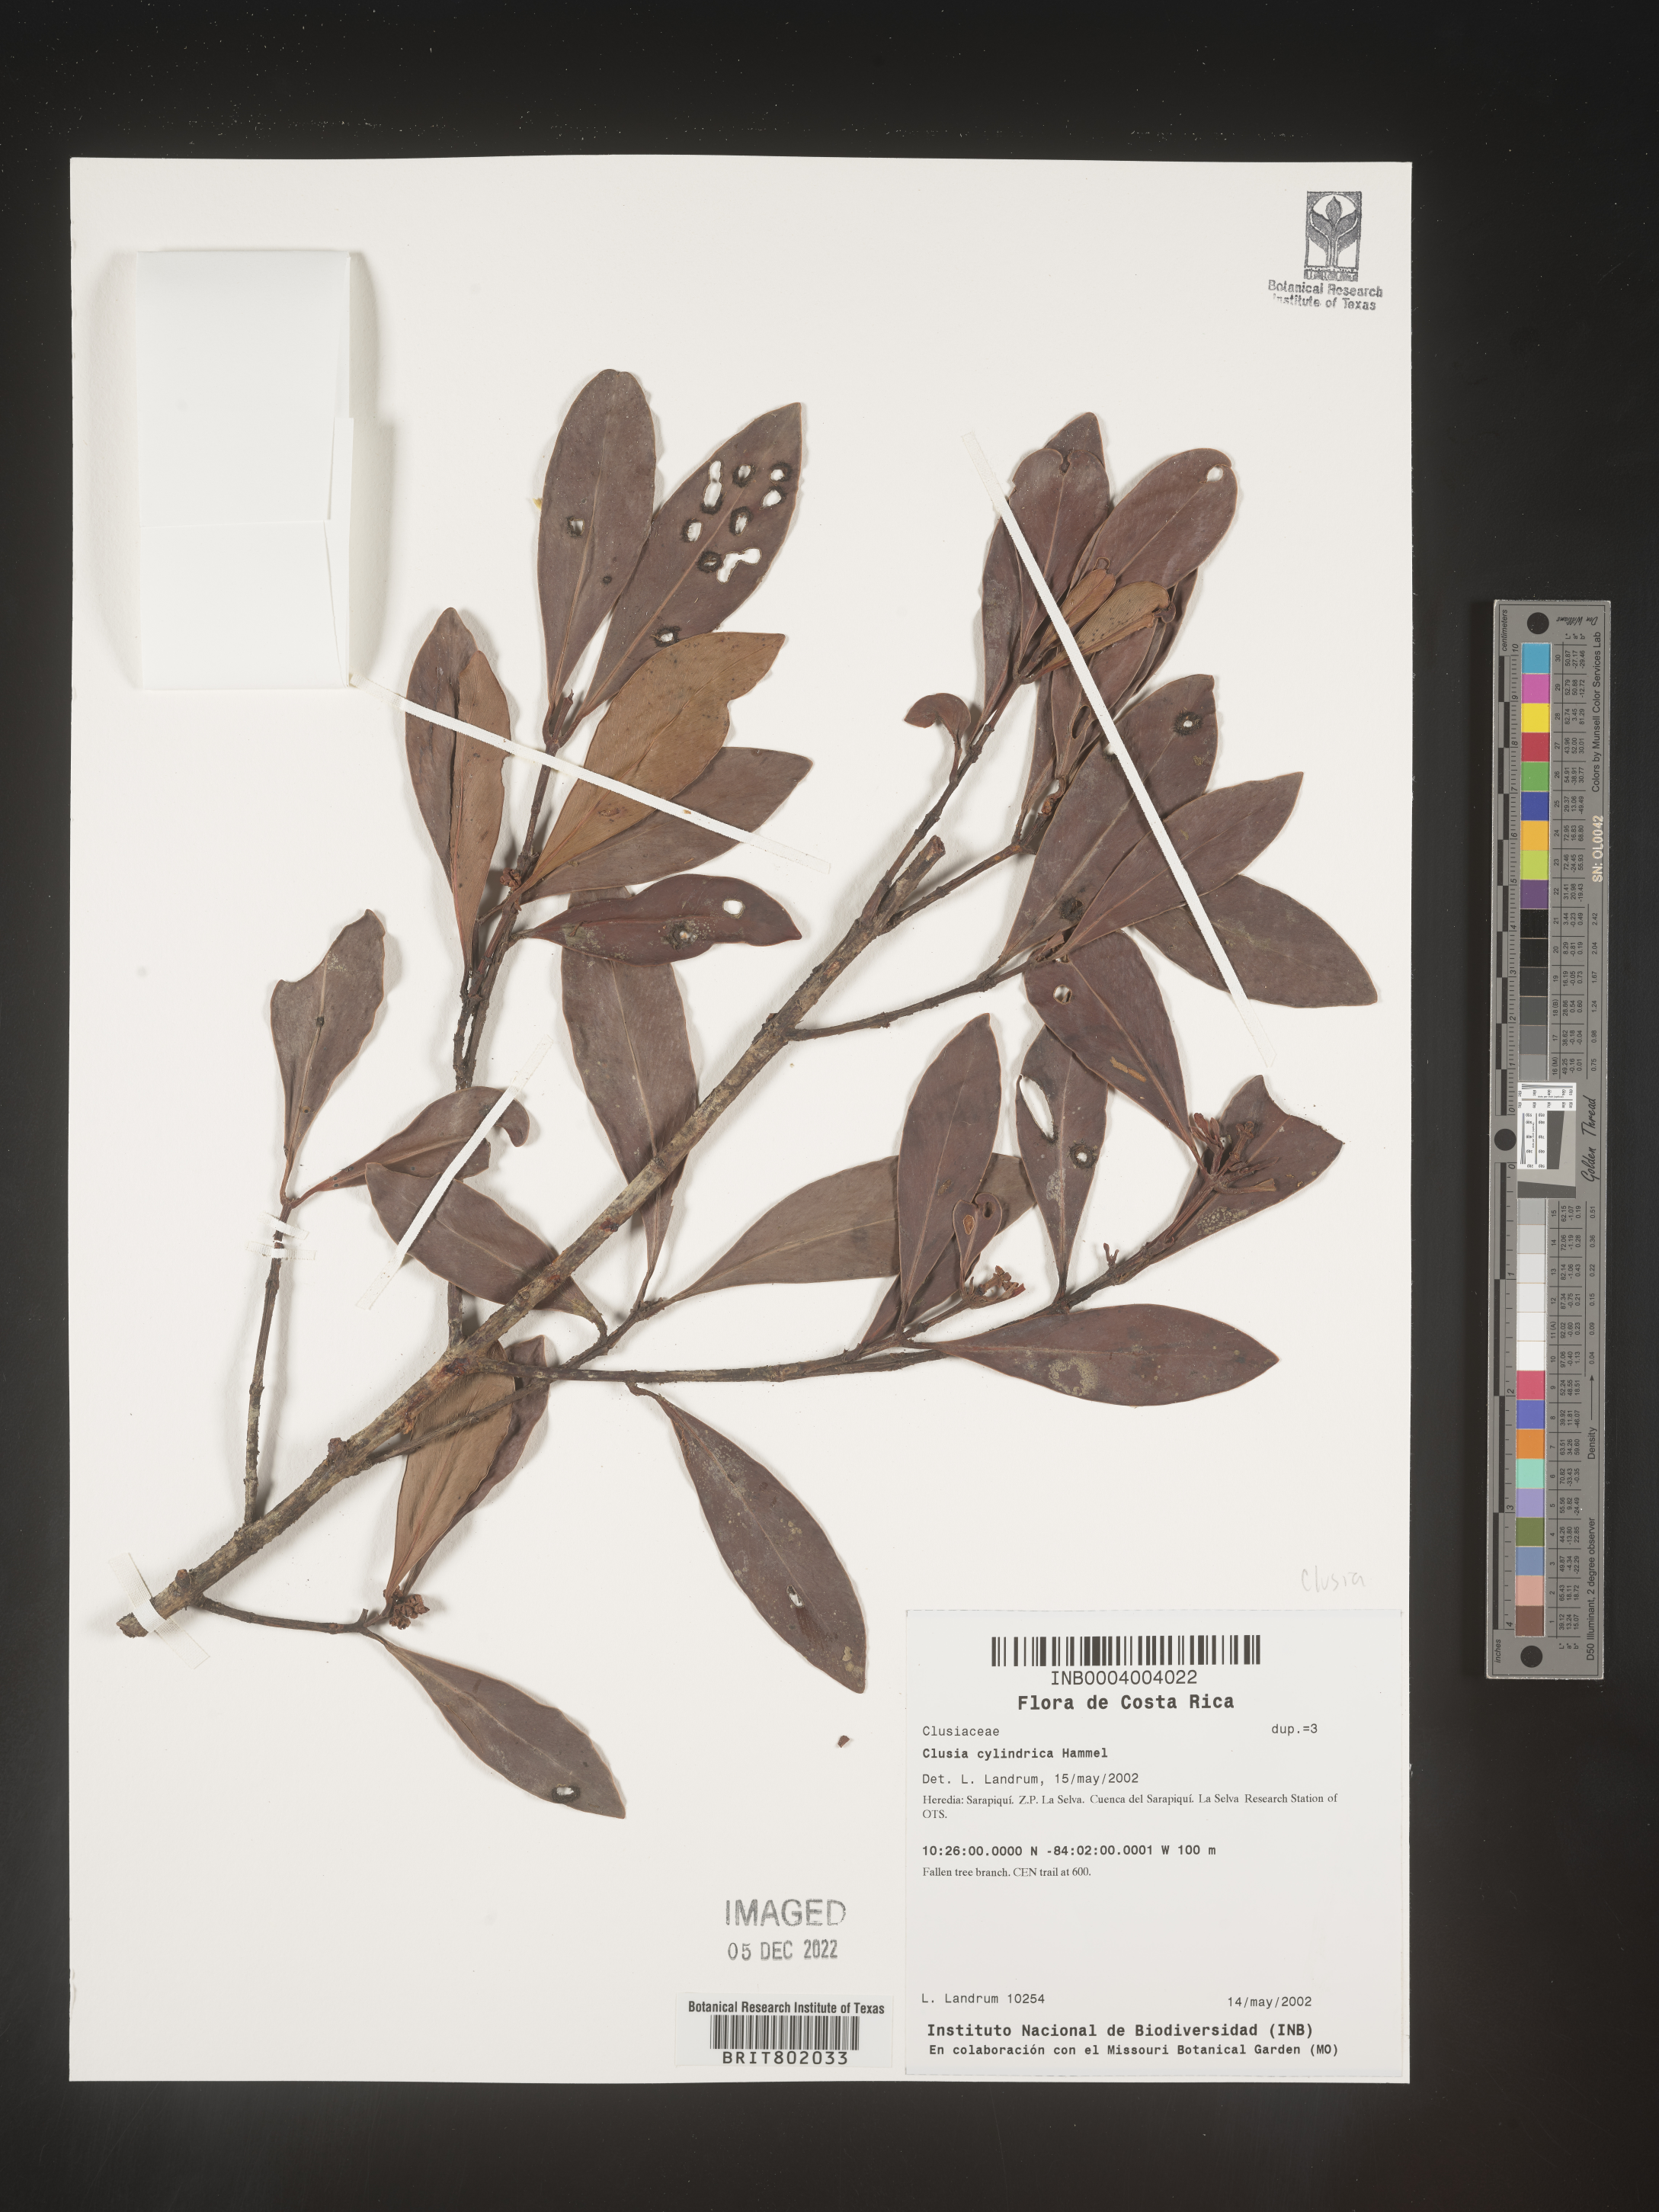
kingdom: Plantae
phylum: Tracheophyta
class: Magnoliopsida
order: Malpighiales
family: Clusiaceae
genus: Clusia
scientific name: Clusia
